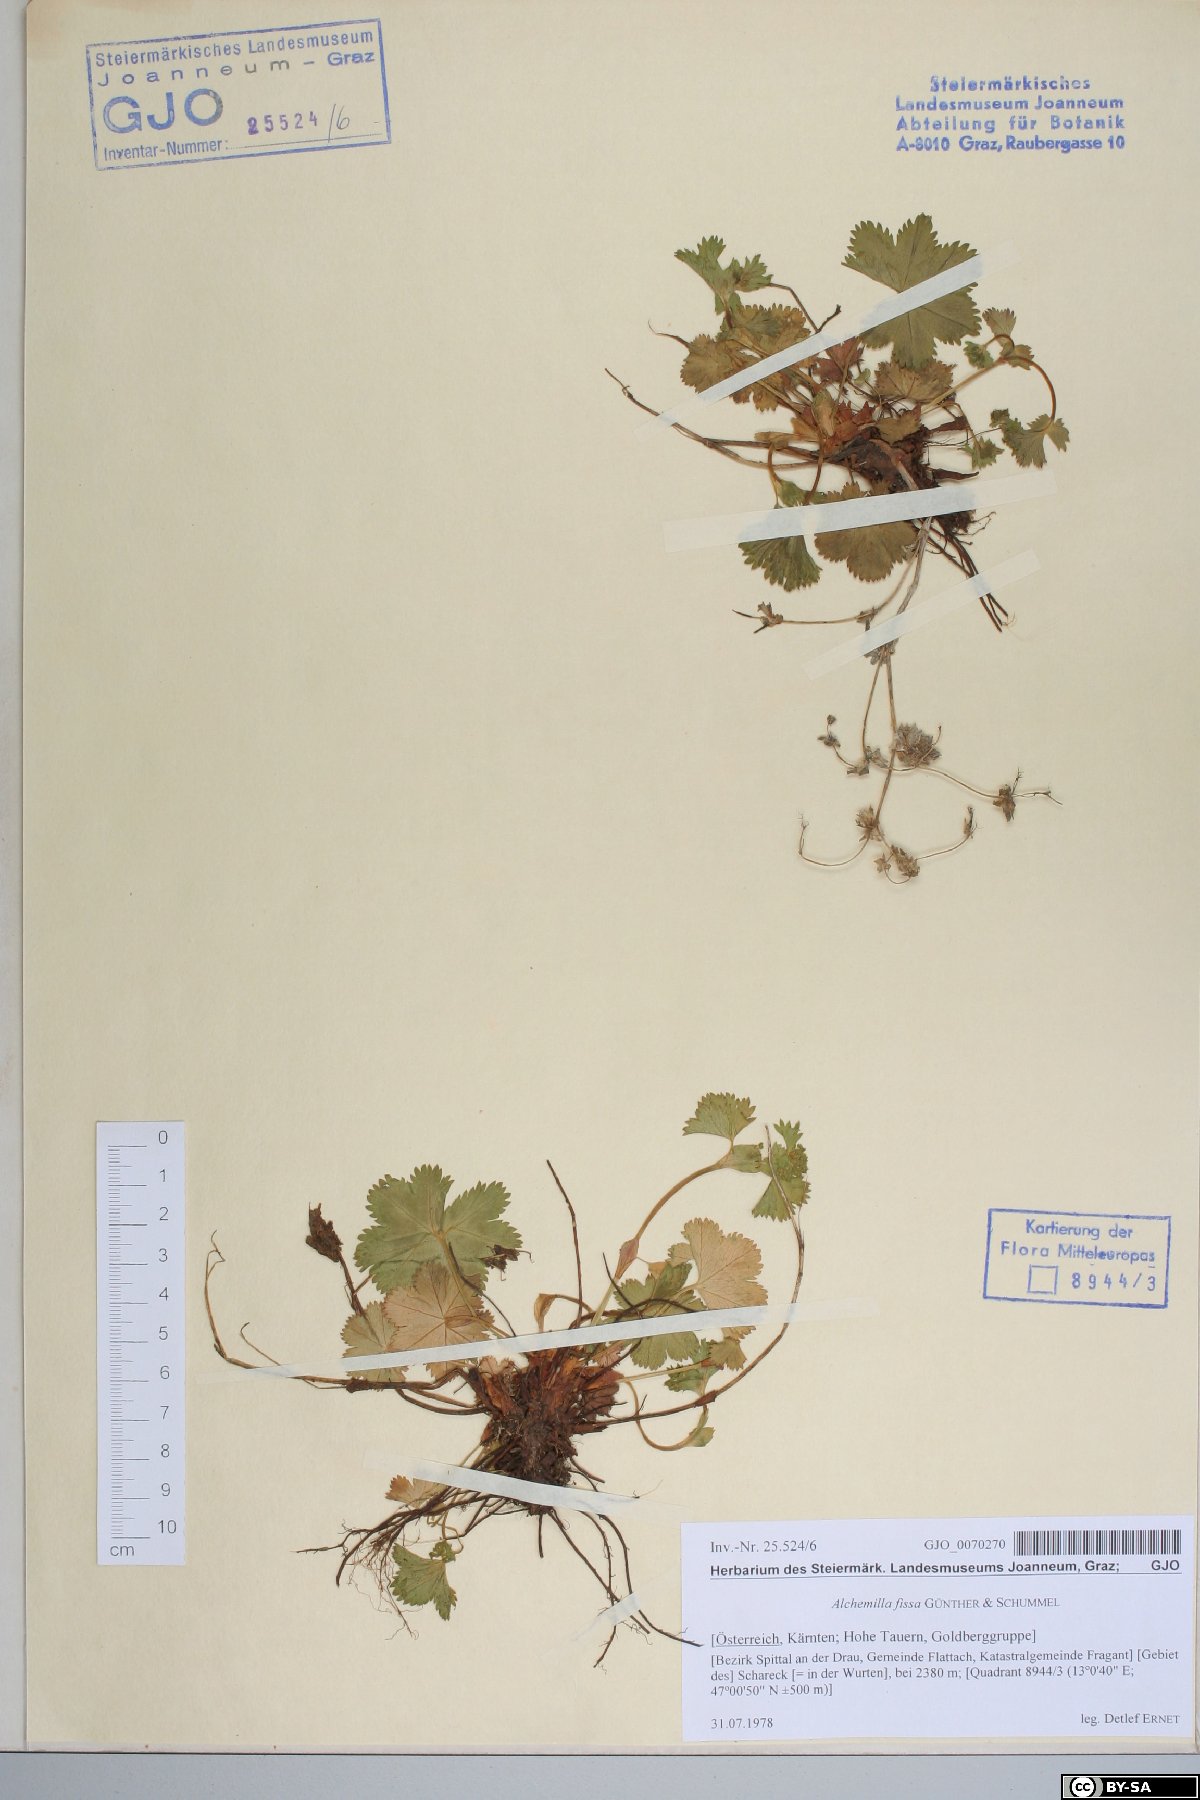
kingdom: Plantae
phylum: Tracheophyta
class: Magnoliopsida
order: Rosales
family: Rosaceae
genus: Alchemilla
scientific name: Alchemilla fissa
